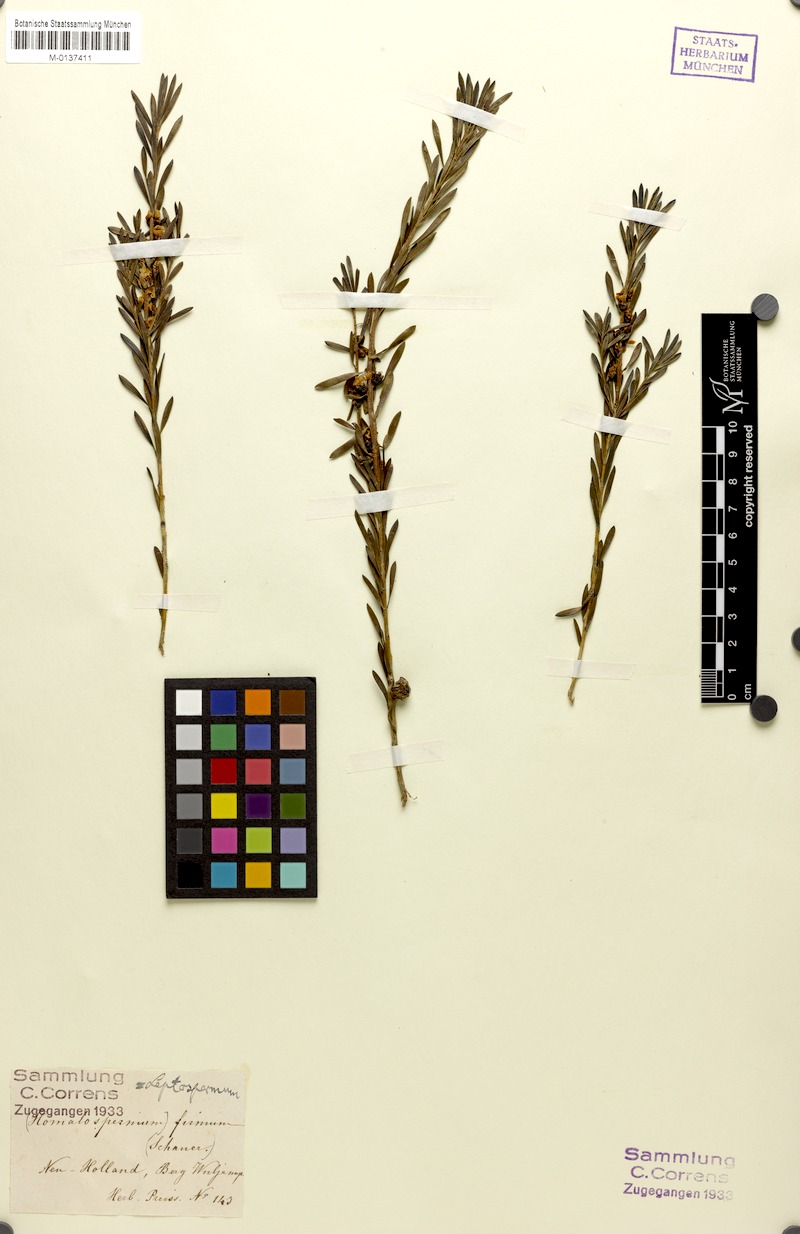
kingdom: Plantae
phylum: Tracheophyta
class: Magnoliopsida
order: Myrtales
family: Myrtaceae
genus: Homalospermum
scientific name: Homalospermum firmum
